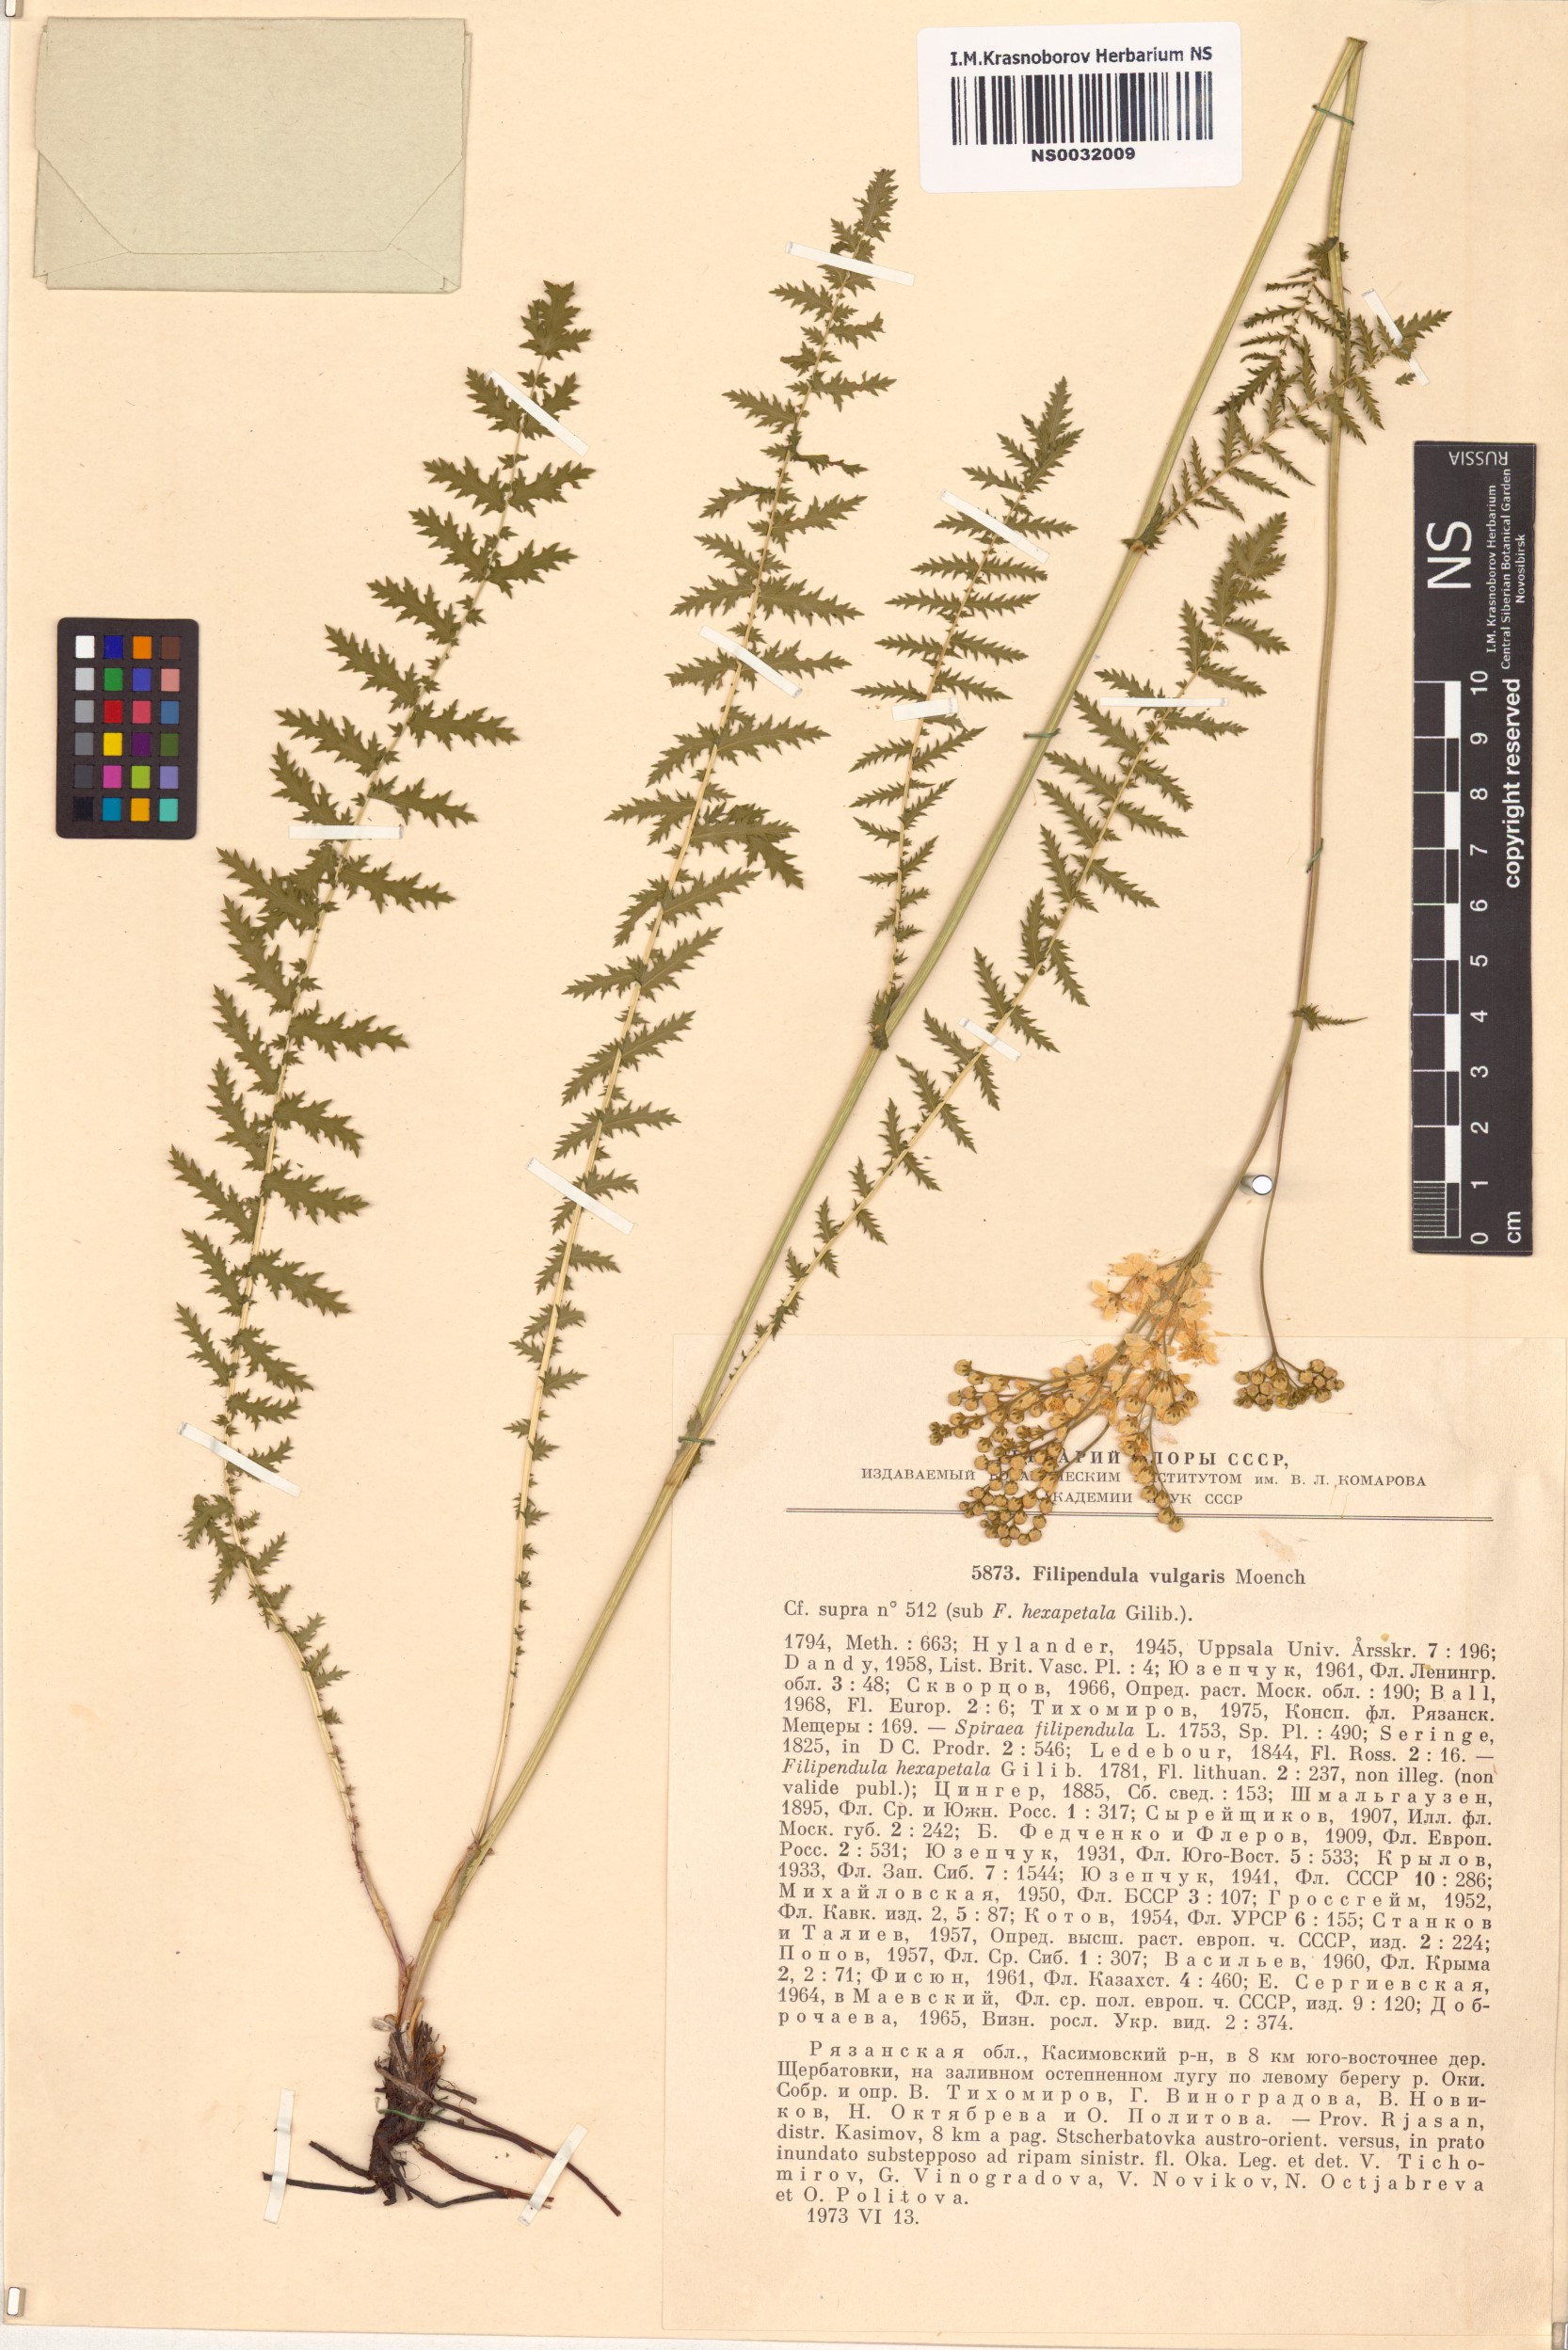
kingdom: Plantae
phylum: Tracheophyta
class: Magnoliopsida
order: Rosales
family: Rosaceae
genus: Filipendula
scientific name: Filipendula vulgaris
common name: Dropwort
